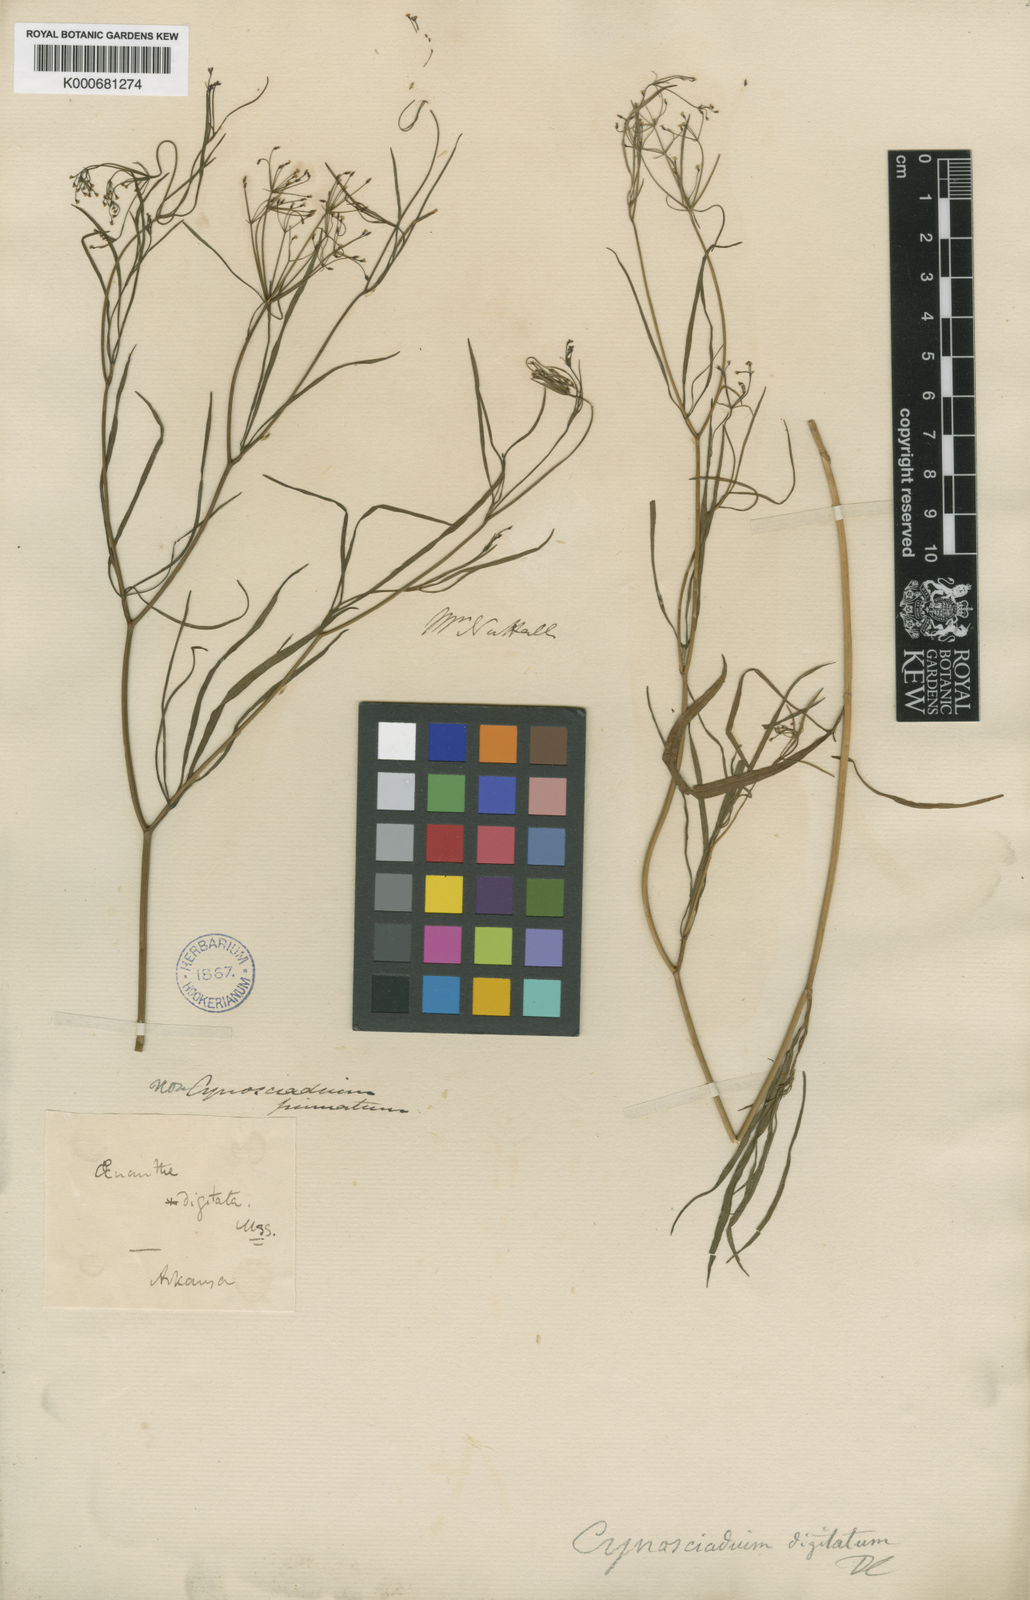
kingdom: Plantae
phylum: Tracheophyta
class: Magnoliopsida
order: Apiales
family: Apiaceae
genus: Cynosciadium
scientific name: Cynosciadium digitatum
